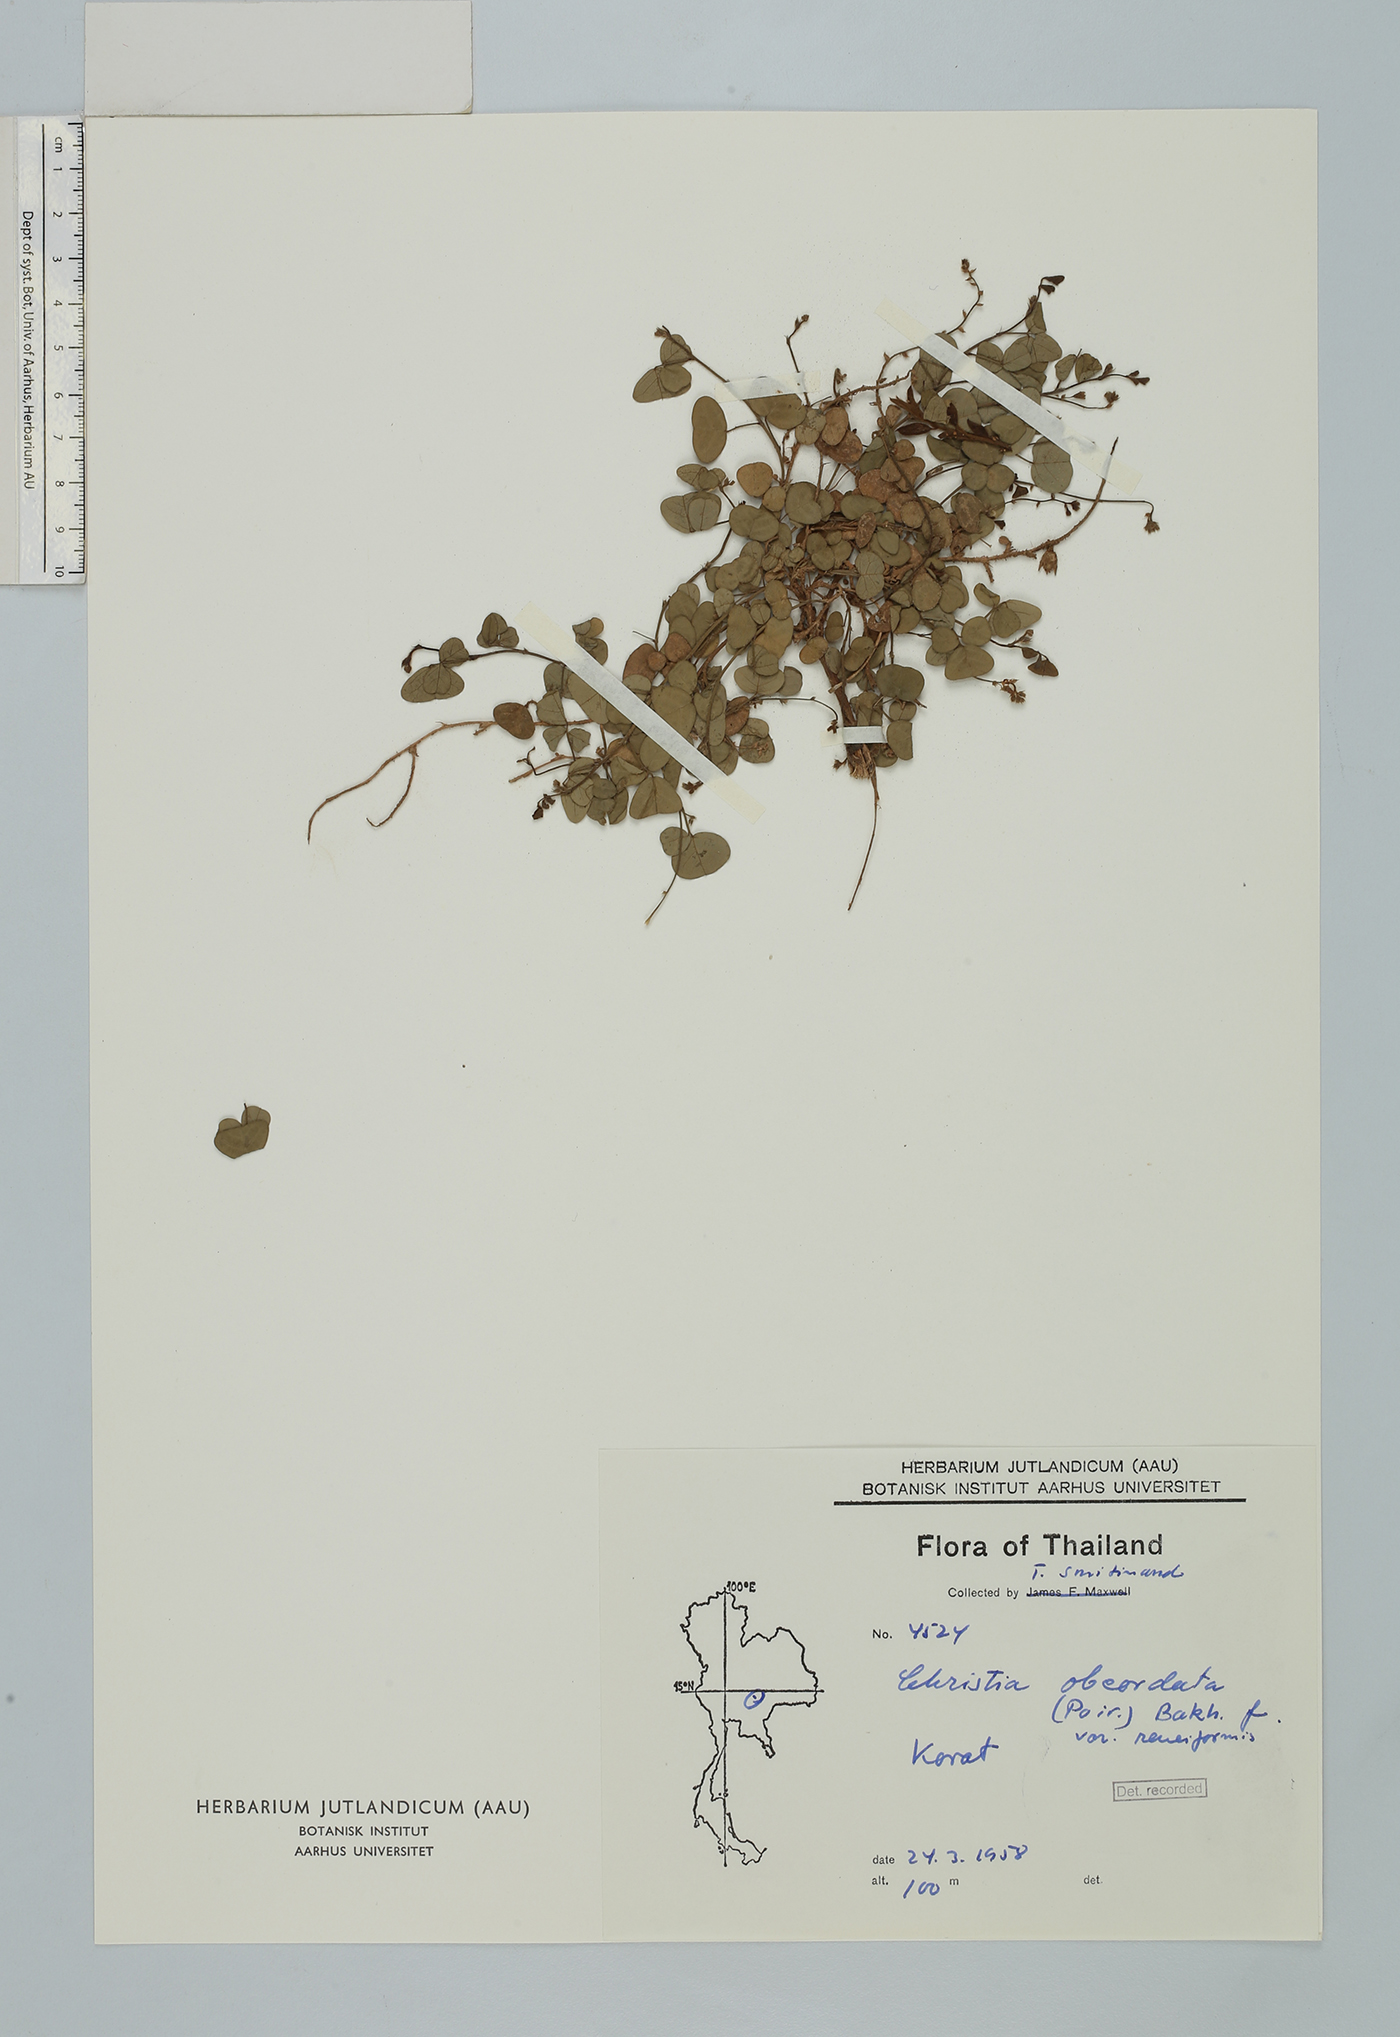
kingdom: Plantae
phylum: Tracheophyta
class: Magnoliopsida
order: Fabales
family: Fabaceae
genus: Christia
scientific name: Christia obcordata
